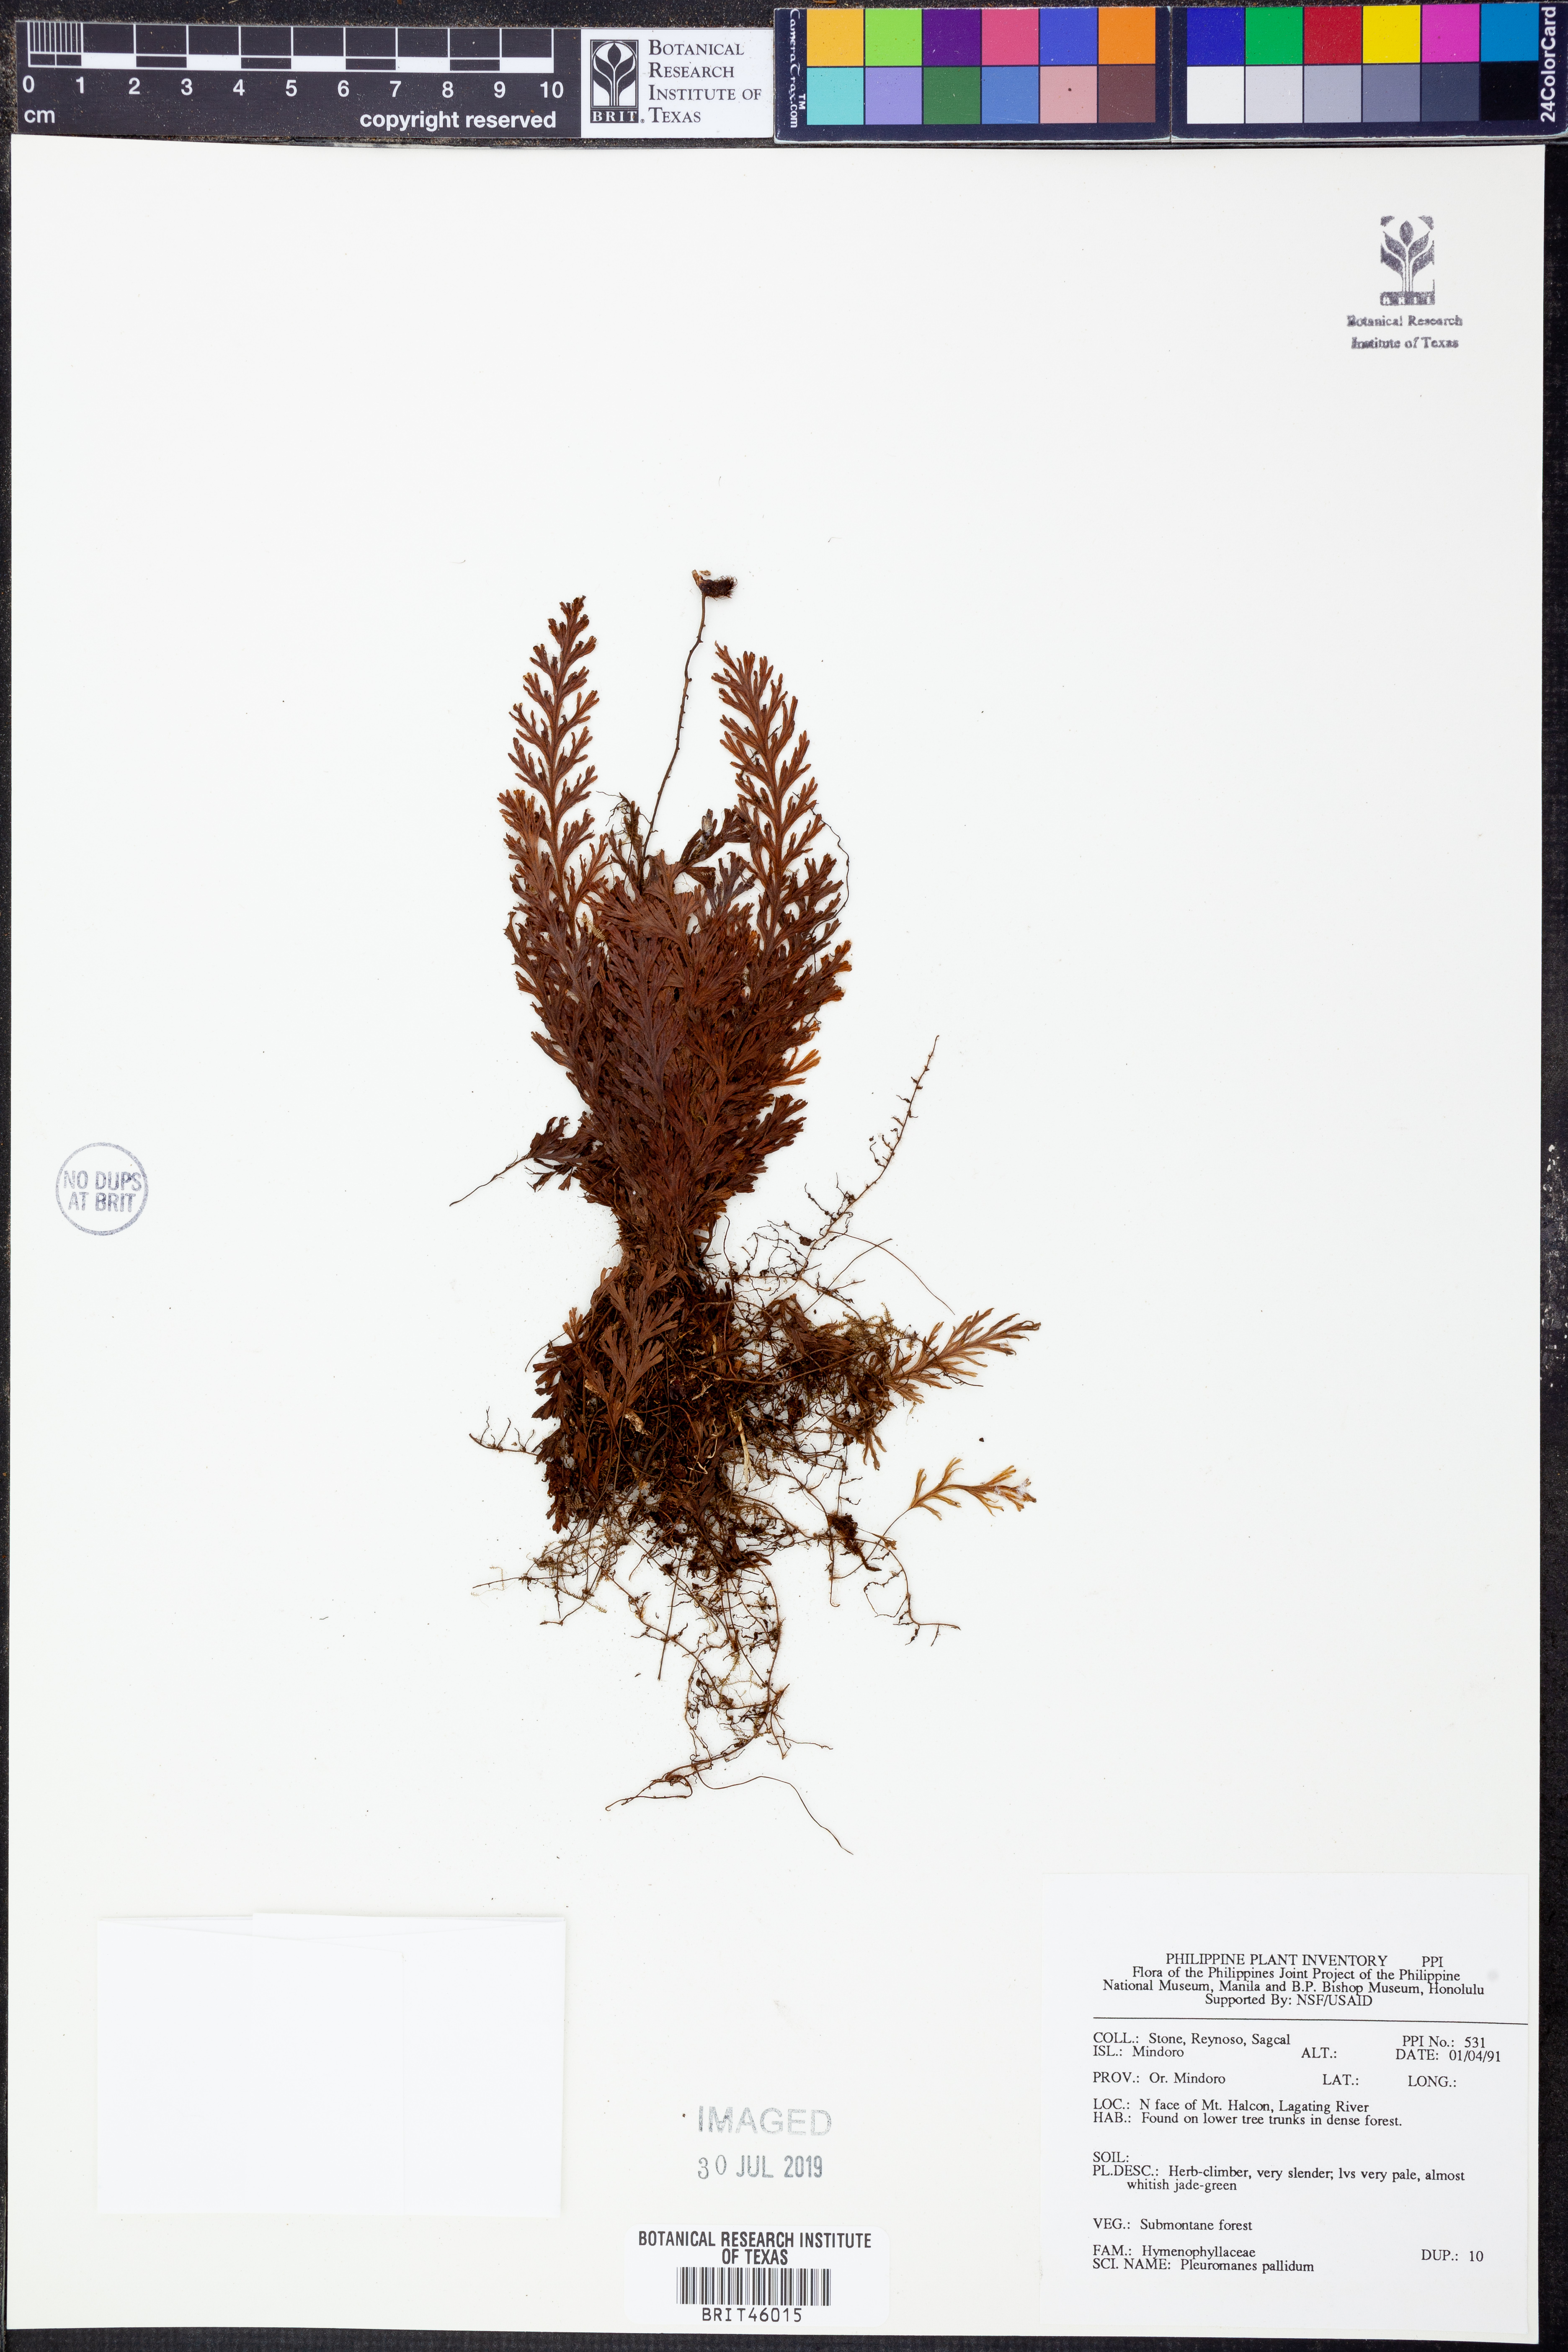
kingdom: Plantae
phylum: Tracheophyta
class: Polypodiopsida
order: Hymenophyllales
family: Hymenophyllaceae
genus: Hymenophyllum
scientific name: Hymenophyllum pallidum
